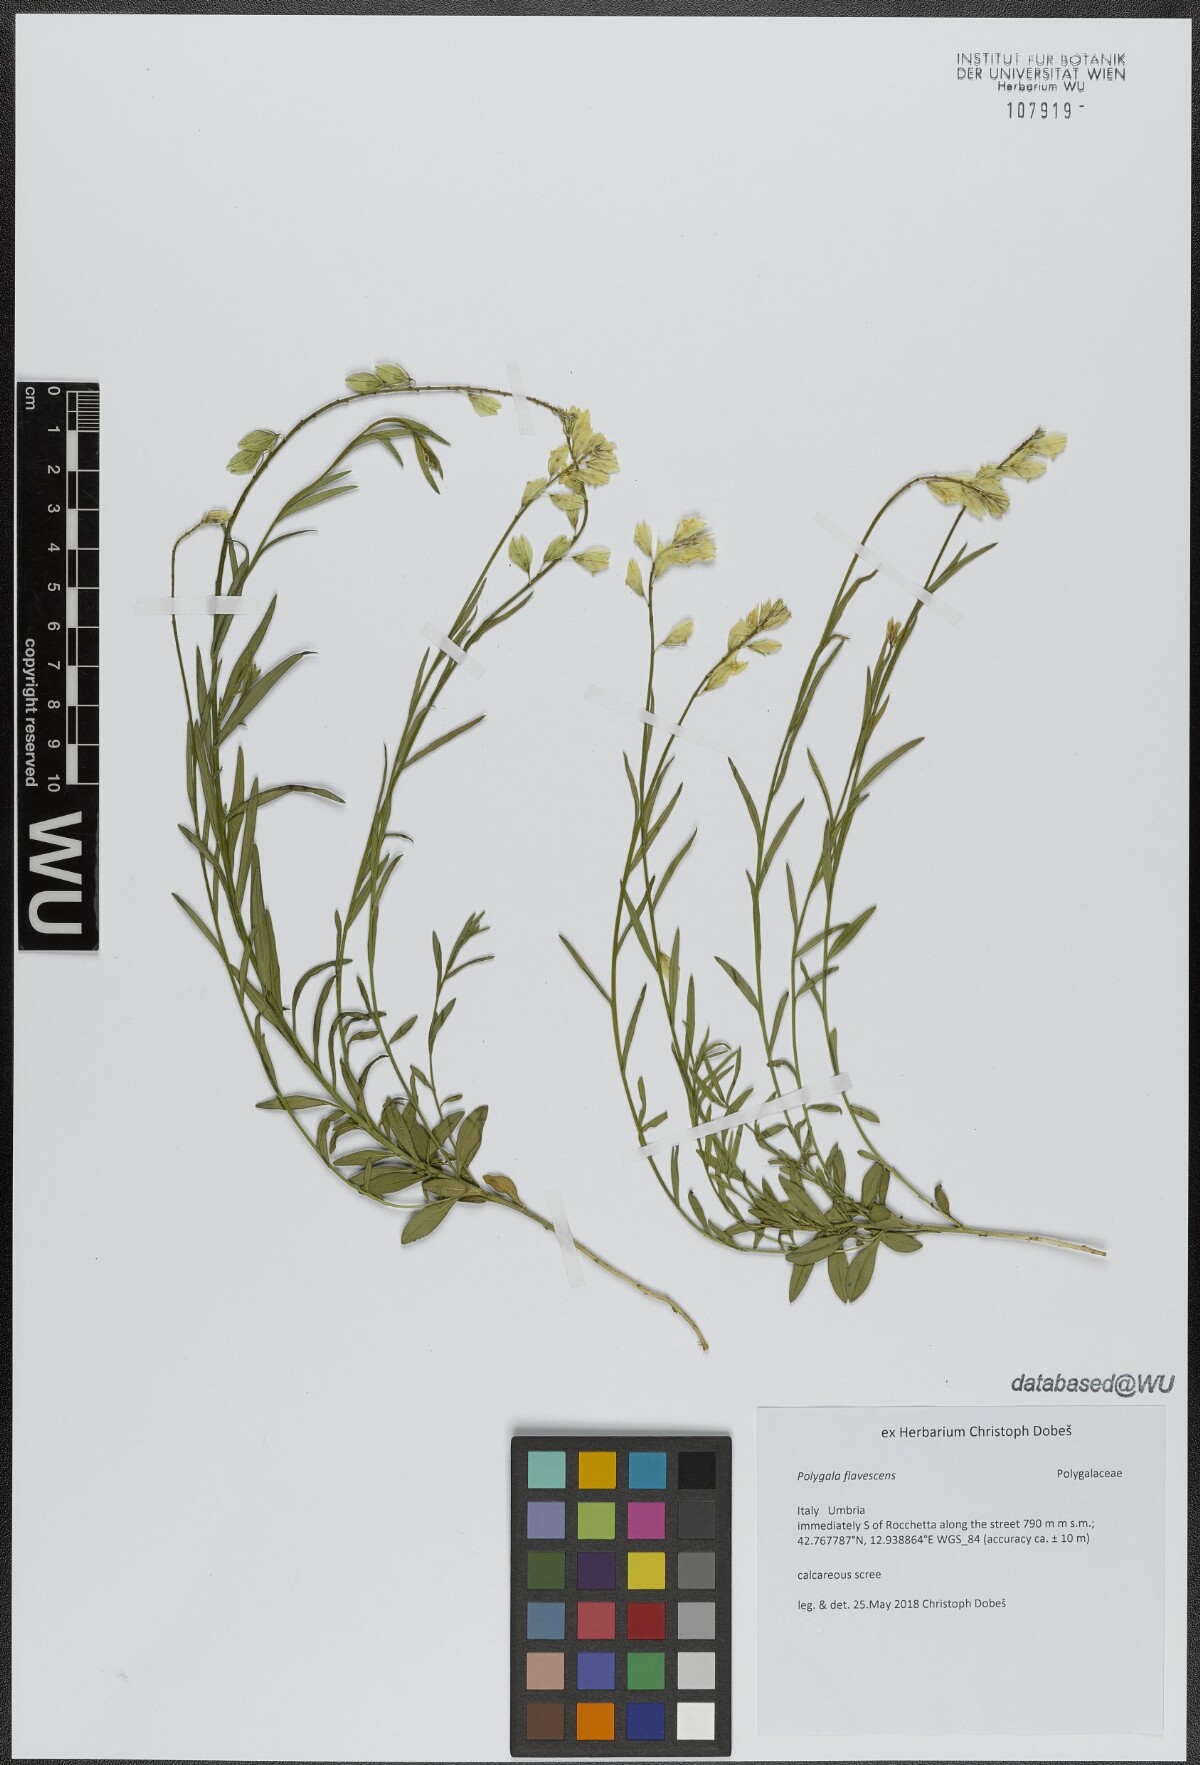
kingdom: Plantae
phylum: Tracheophyta
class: Magnoliopsida
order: Fabales
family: Polygalaceae
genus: Polygala
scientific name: Polygala flavescens
